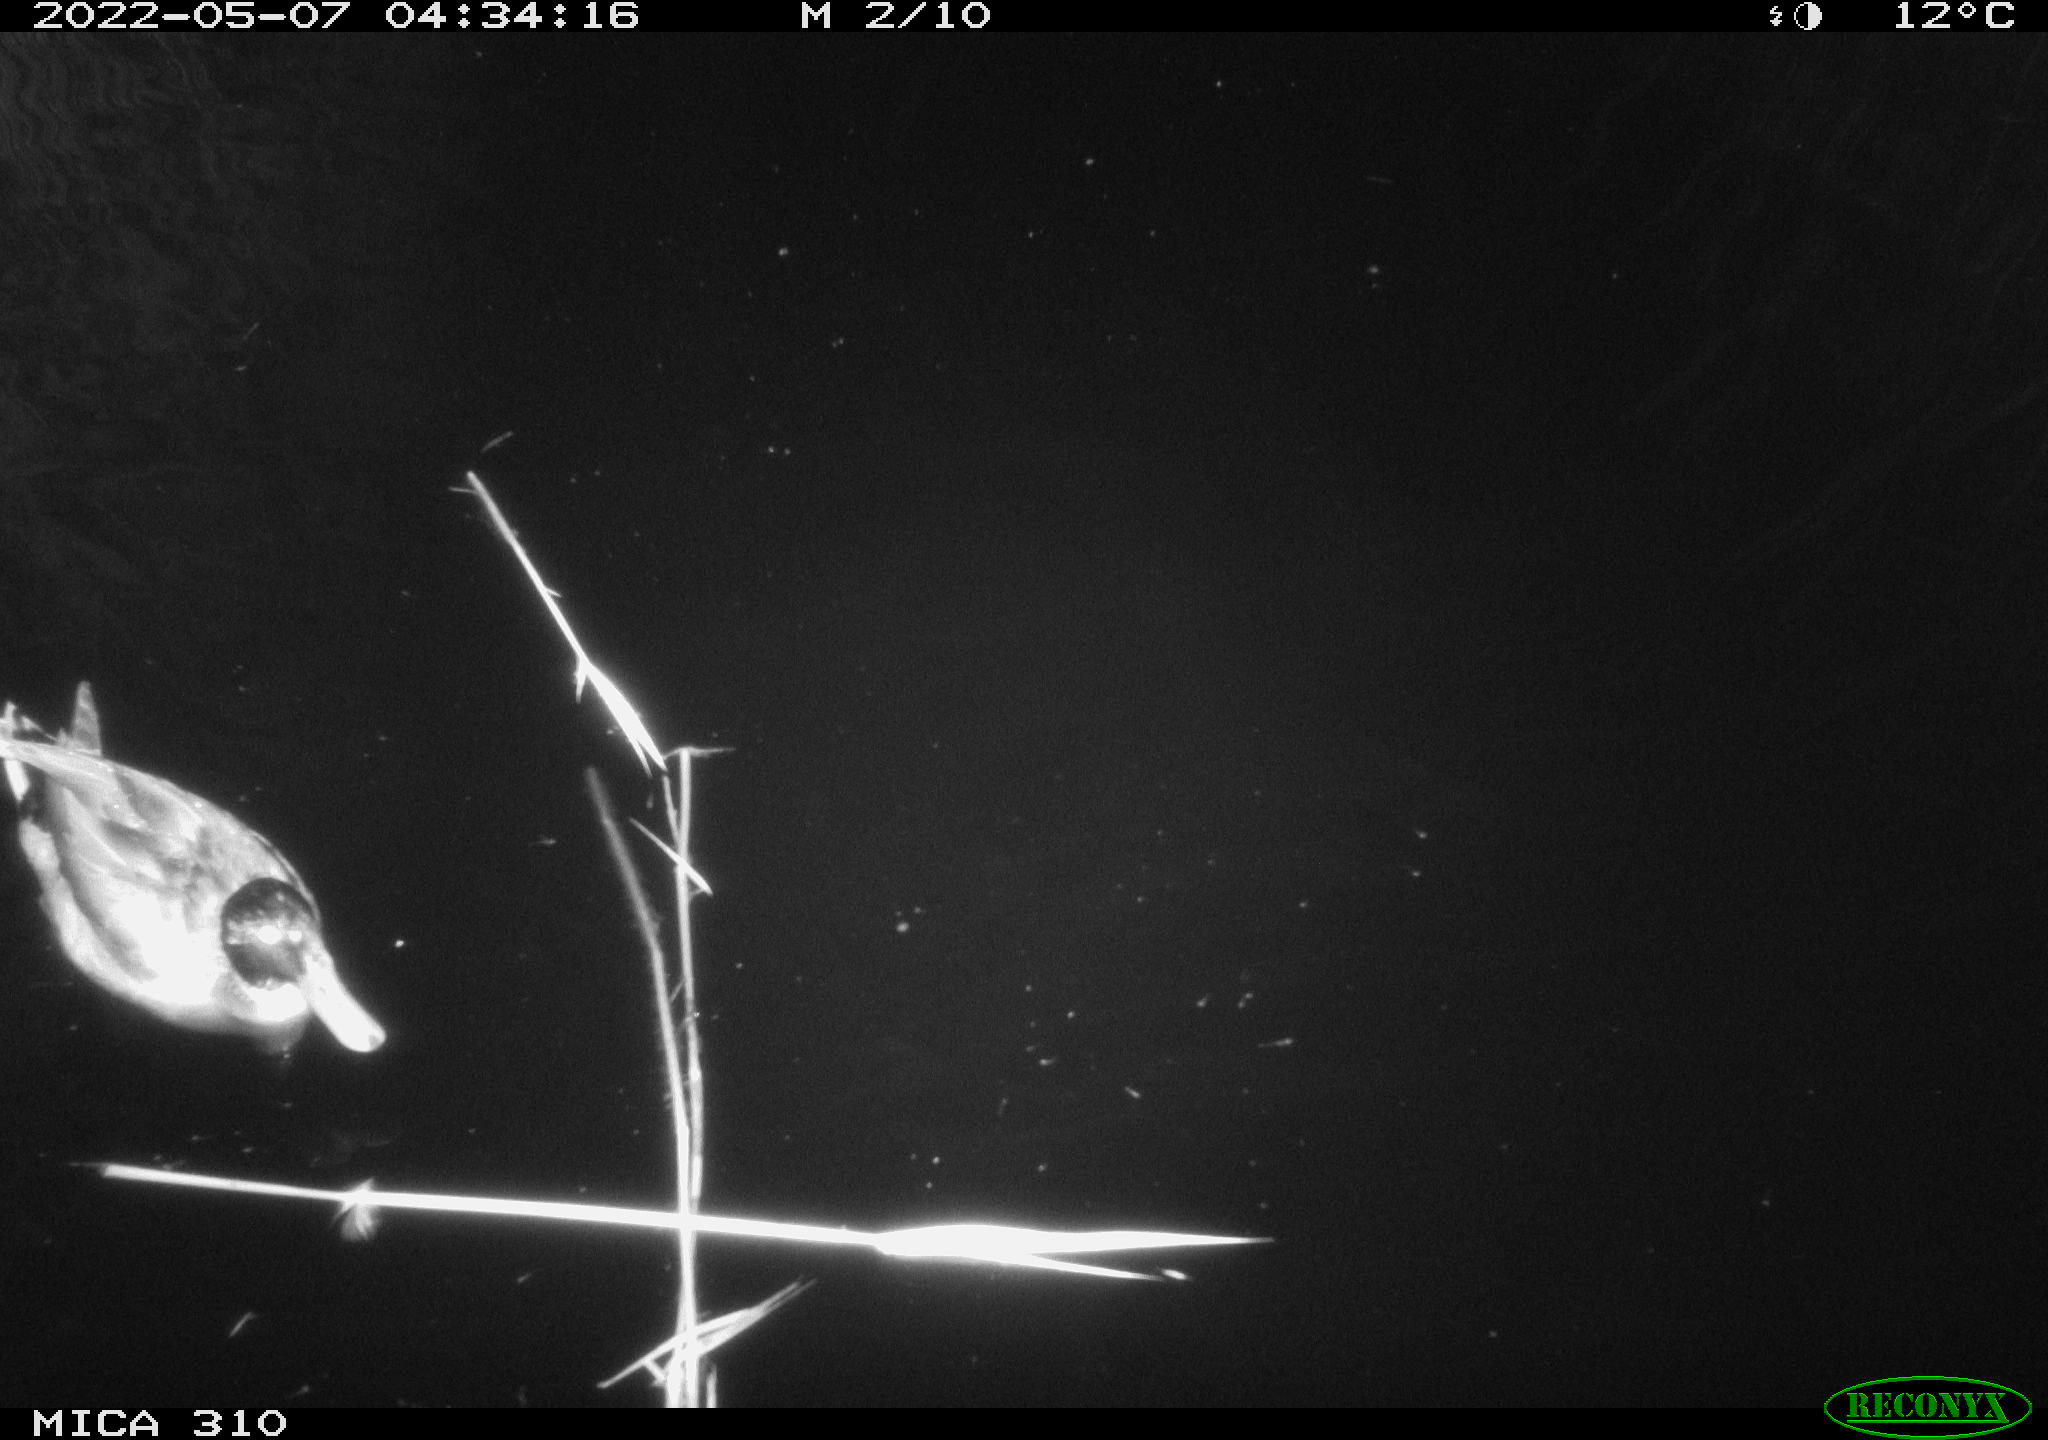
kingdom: Animalia
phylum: Chordata
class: Aves
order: Anseriformes
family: Anatidae
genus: Anas
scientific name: Anas platyrhynchos
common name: Mallard
